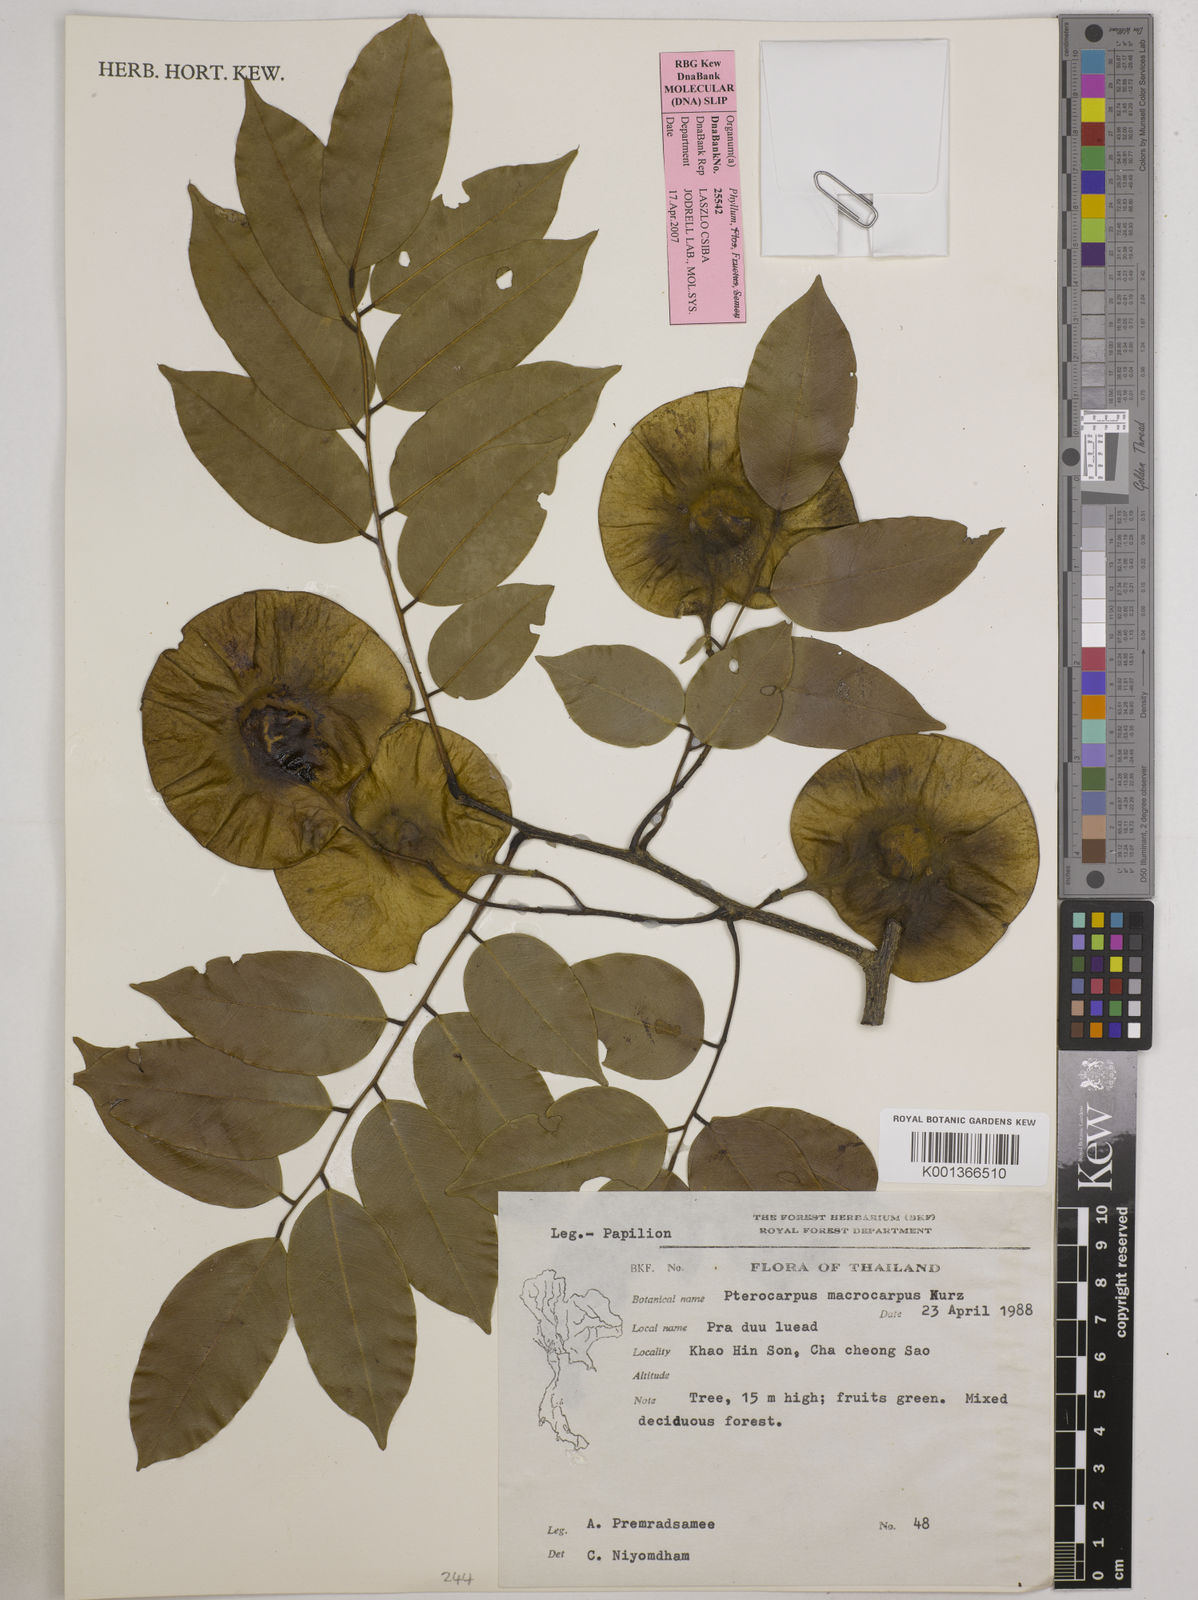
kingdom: Plantae
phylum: Tracheophyta
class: Magnoliopsida
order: Fabales
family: Fabaceae
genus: Pterocarpus
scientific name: Pterocarpus macrocarpus
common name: Burma padauk
